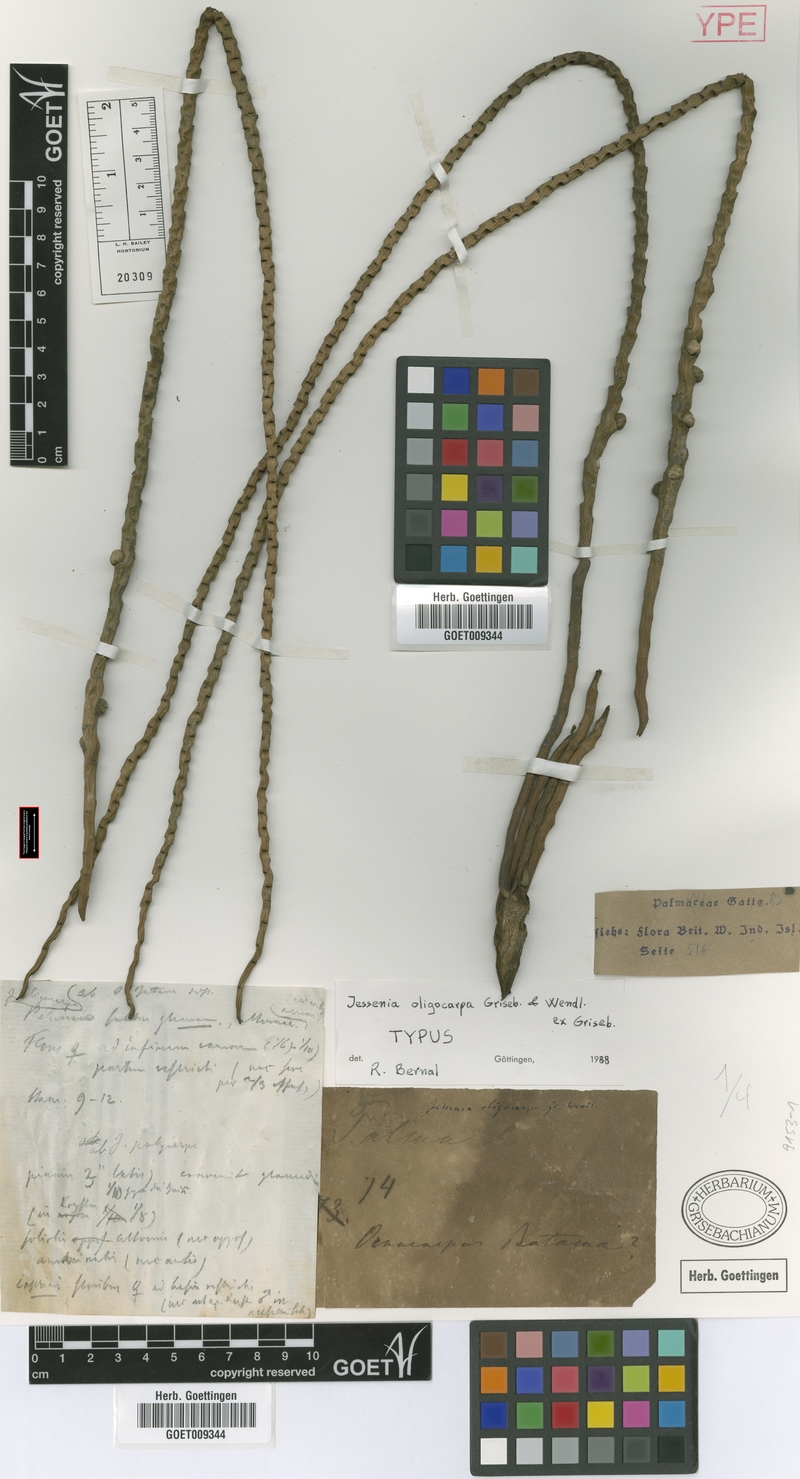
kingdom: Plantae
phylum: Tracheophyta
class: Liliopsida
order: Arecales
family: Arecaceae
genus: Oenocarpus
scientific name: Oenocarpus bataua
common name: Bataua palm
